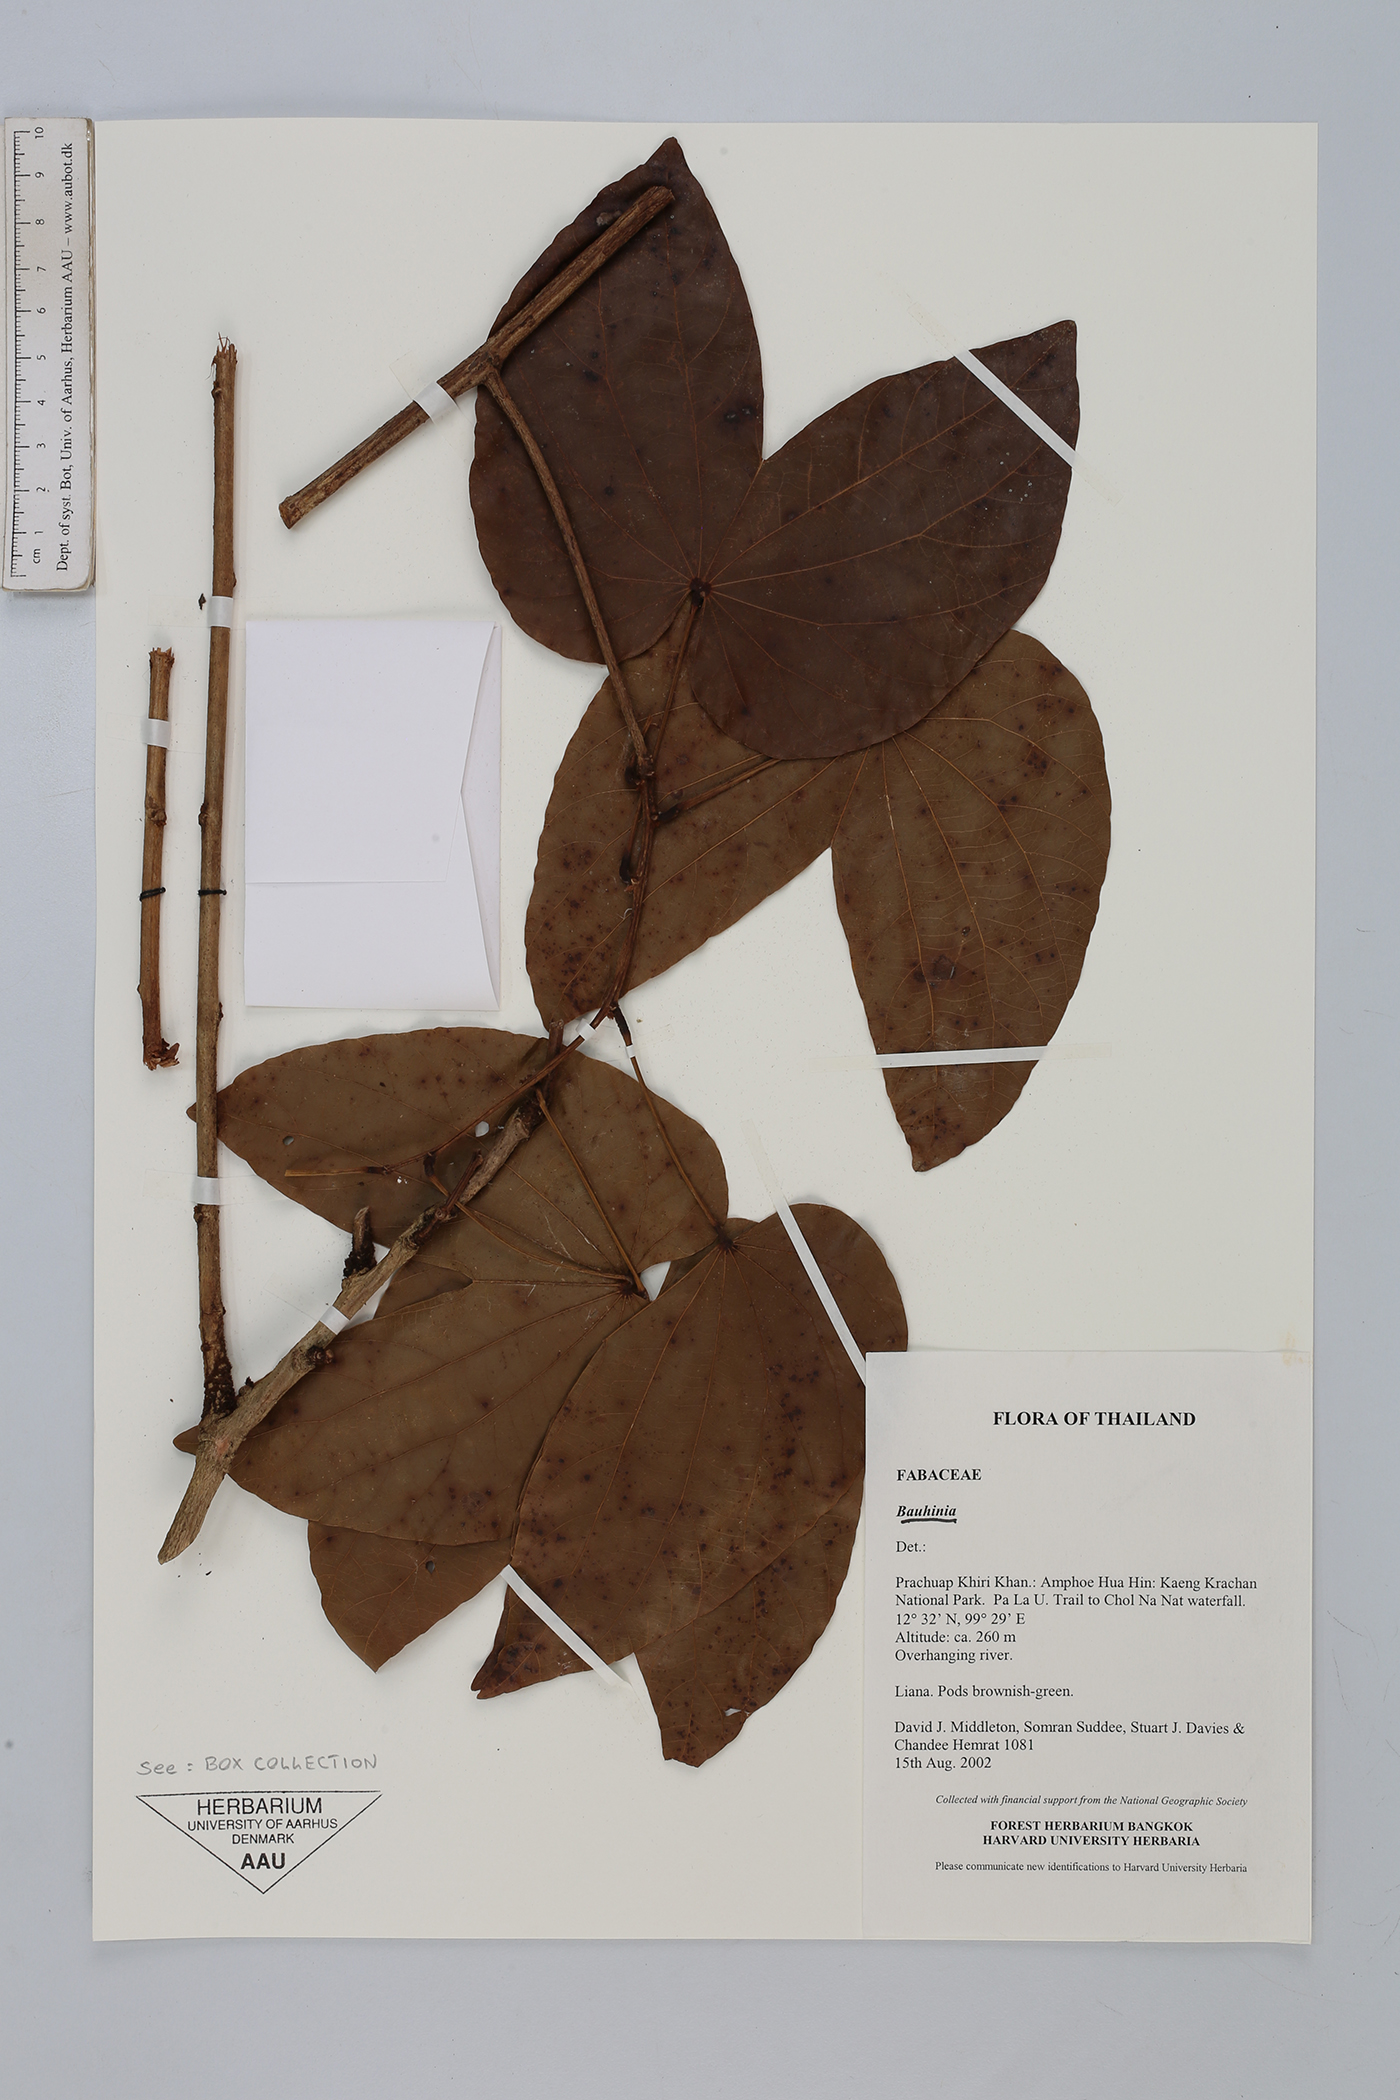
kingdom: Plantae
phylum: Tracheophyta
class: Magnoliopsida
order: Fabales
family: Fabaceae
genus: Bauhinia
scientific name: Bauhinia
